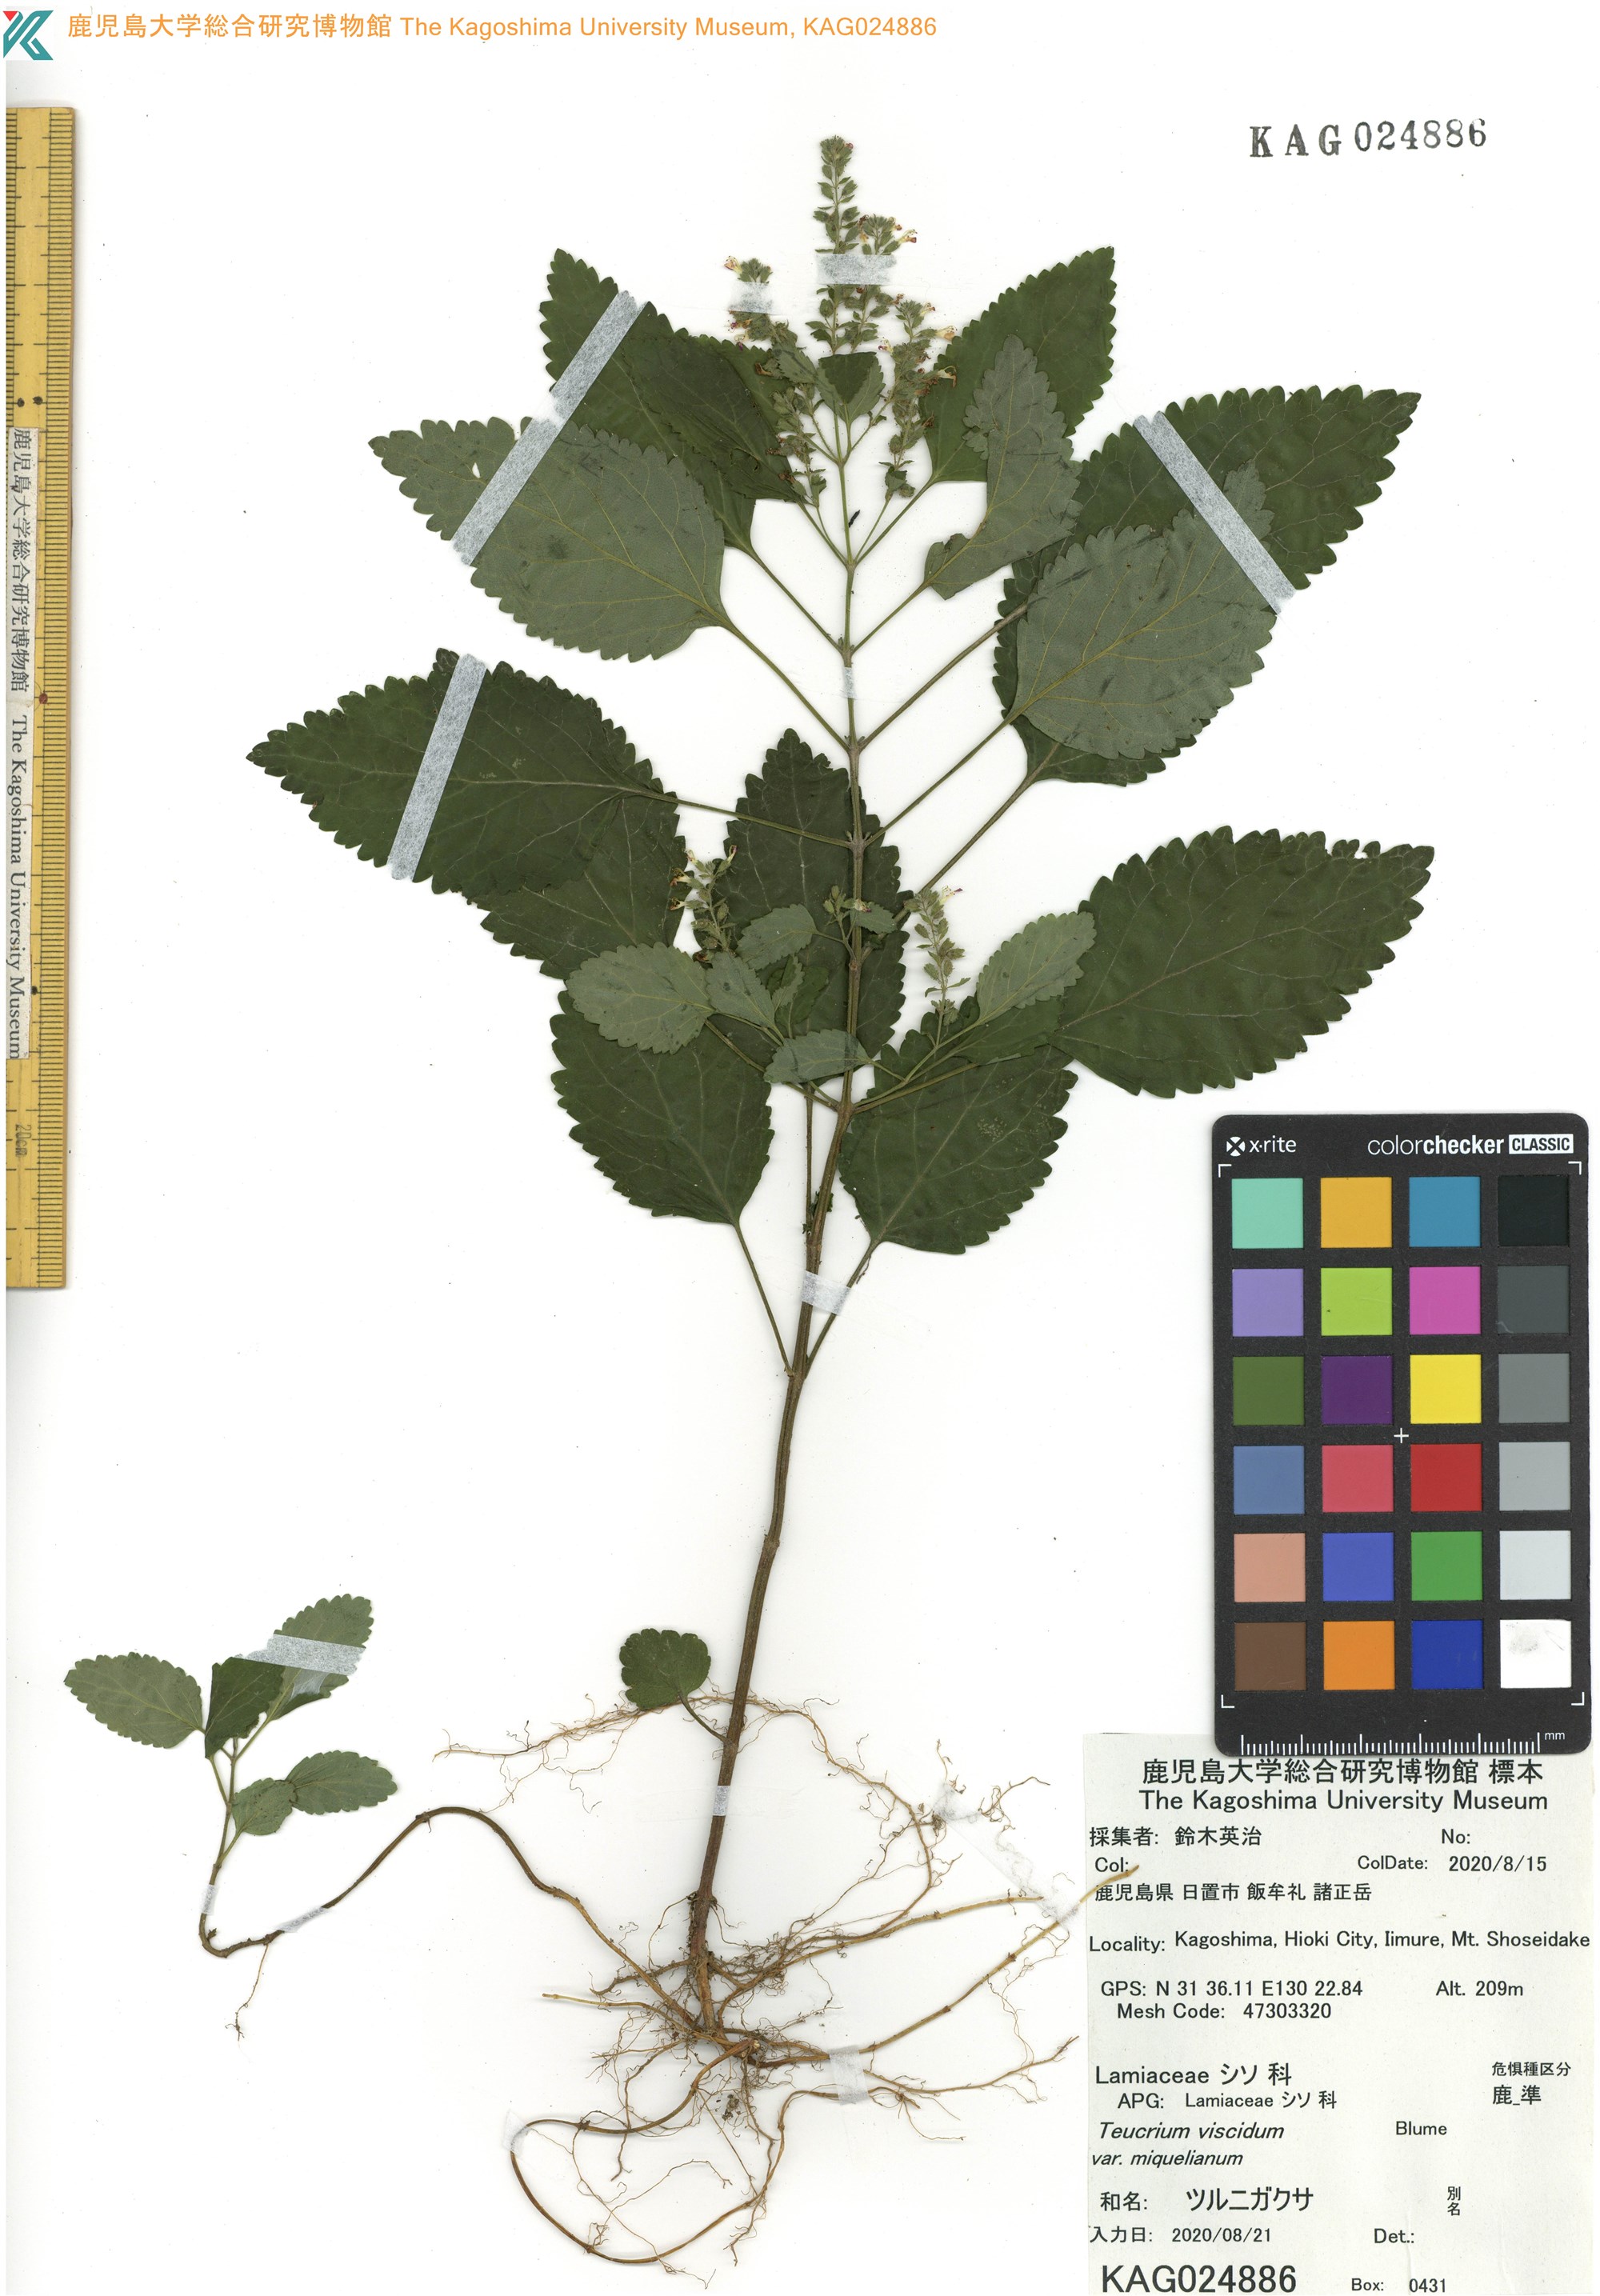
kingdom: Plantae
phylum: Tracheophyta
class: Magnoliopsida
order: Lamiales
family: Lamiaceae
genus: Teucrium
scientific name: Teucrium viscidum
